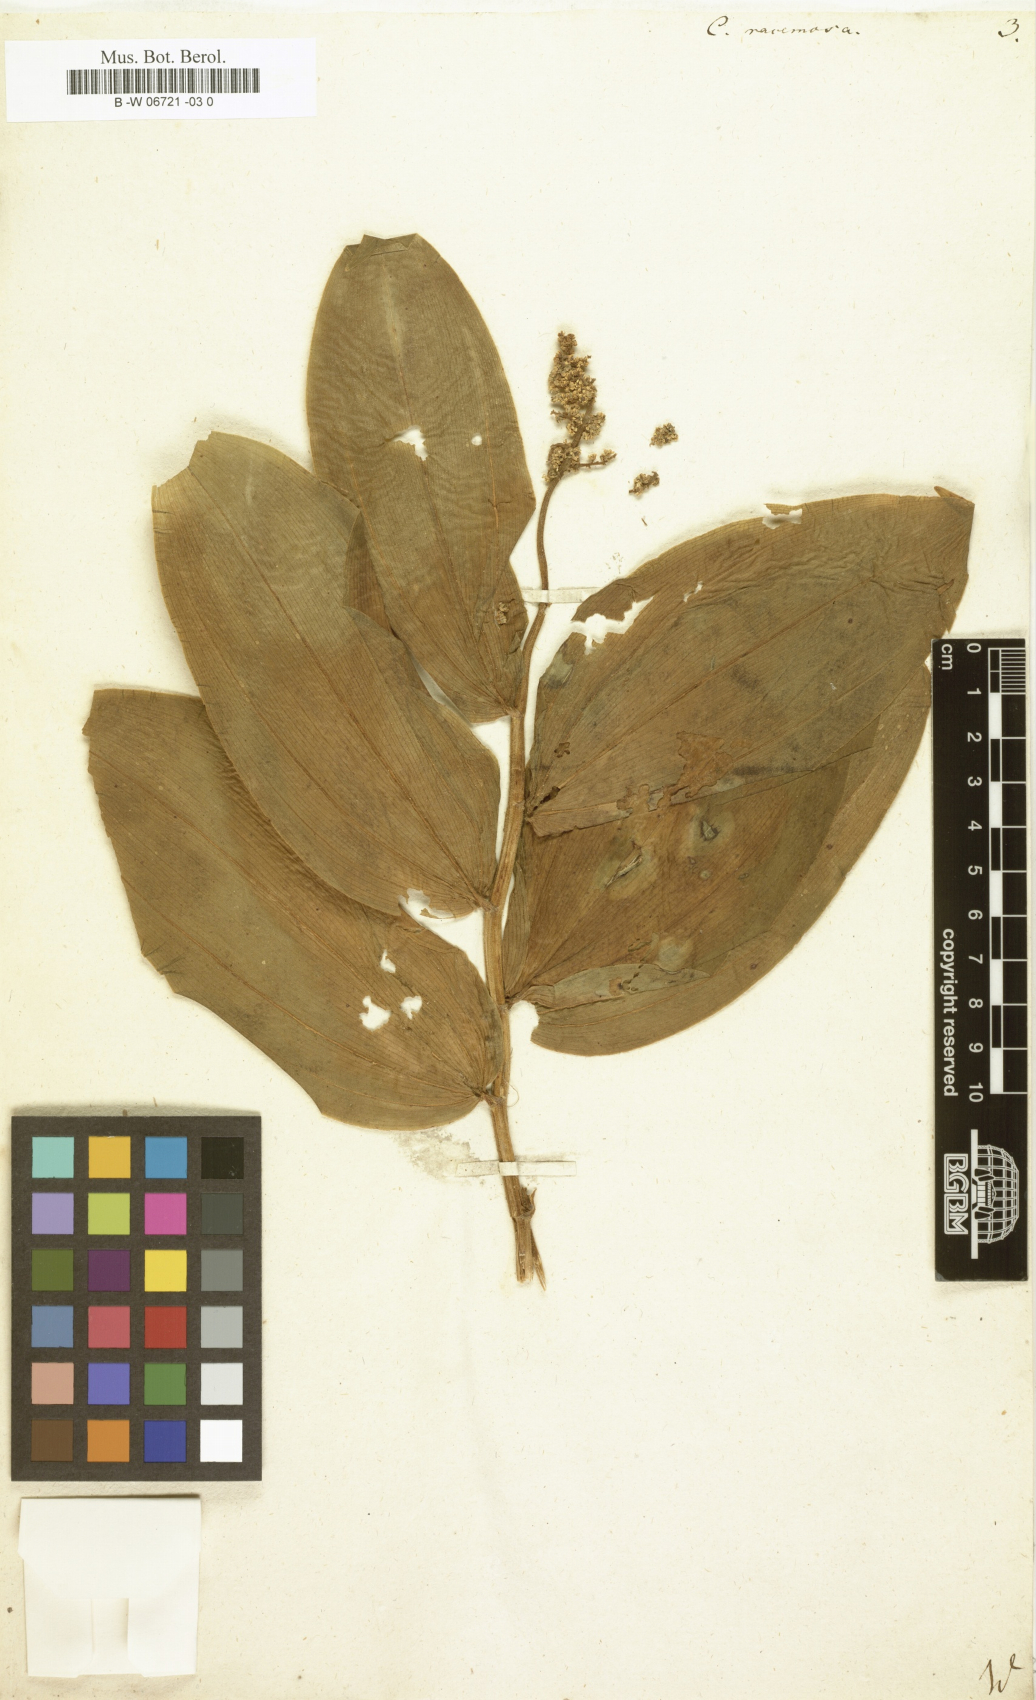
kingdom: Plantae
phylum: Tracheophyta
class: Liliopsida
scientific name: Liliopsida
